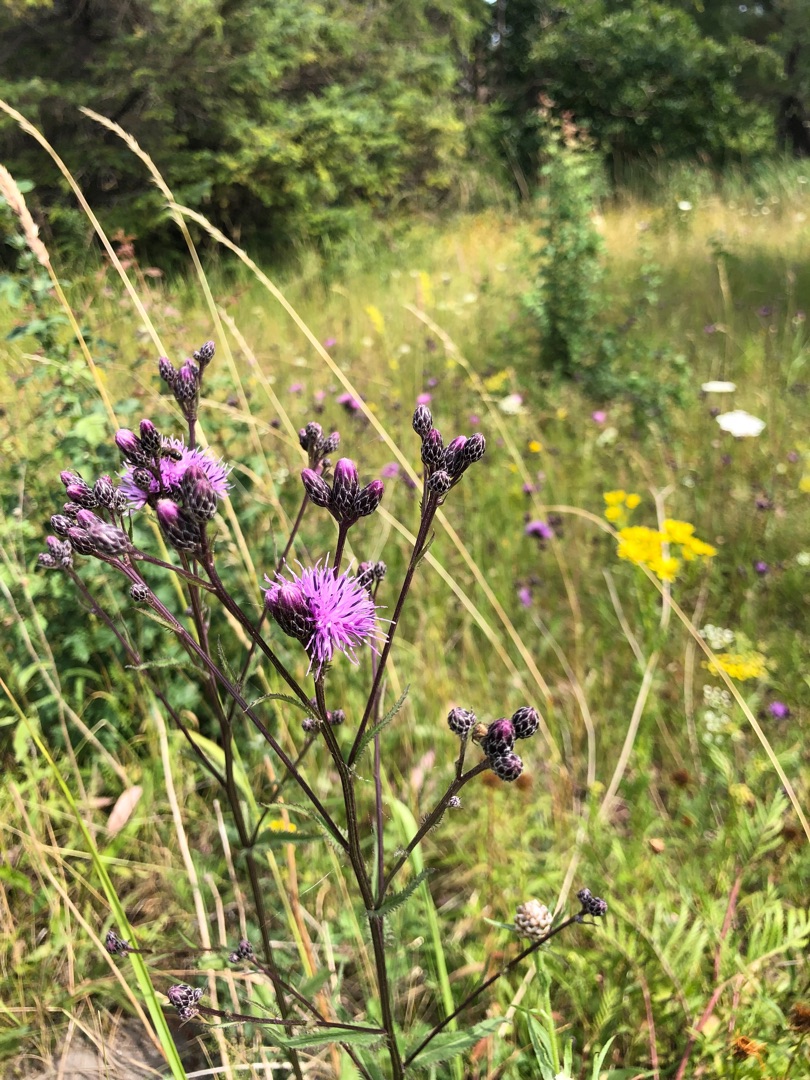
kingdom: Plantae
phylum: Tracheophyta
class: Magnoliopsida
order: Asterales
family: Asteraceae
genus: Serratula
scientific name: Serratula tinctoria
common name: Eng-skær
